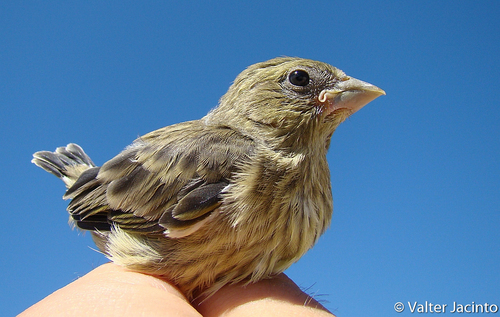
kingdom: Plantae
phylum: Tracheophyta
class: Liliopsida
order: Poales
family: Poaceae
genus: Chloris
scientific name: Chloris chloris
